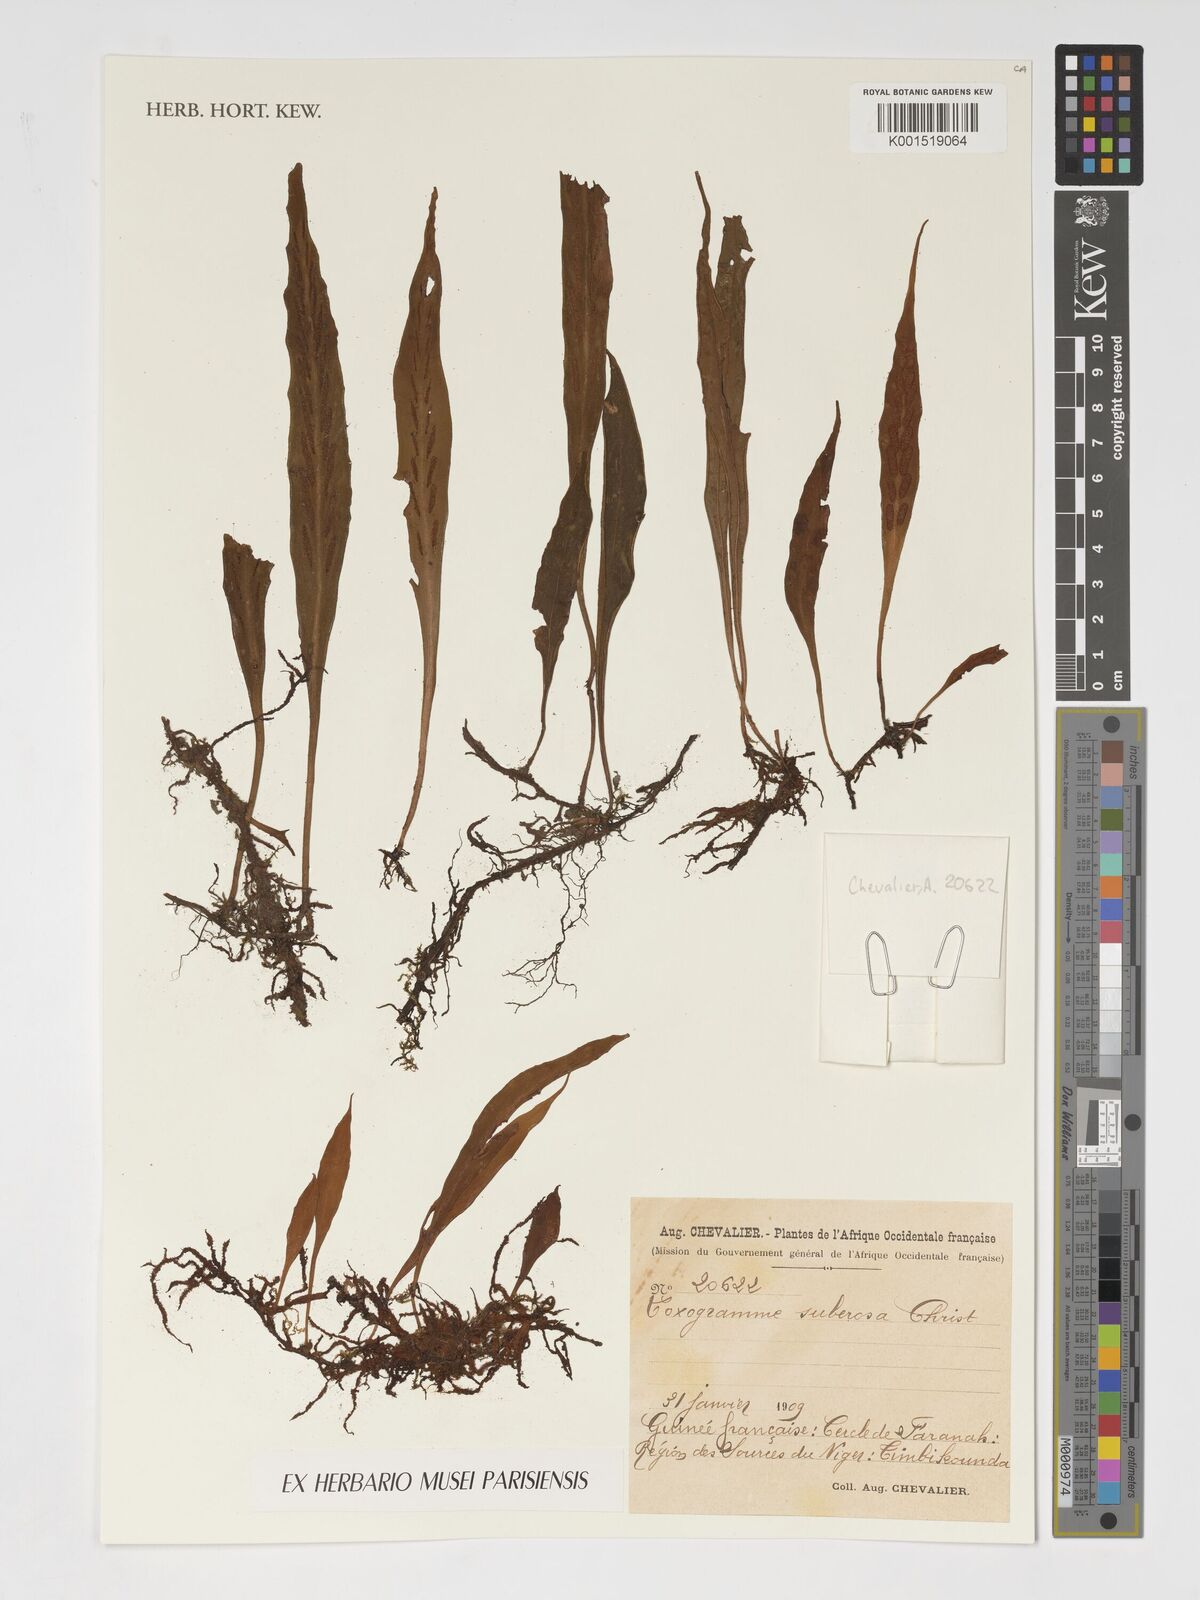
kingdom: Plantae
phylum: Tracheophyta
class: Polypodiopsida
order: Polypodiales
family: Polypodiaceae
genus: Loxogramme
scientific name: Loxogramme abyssinica
